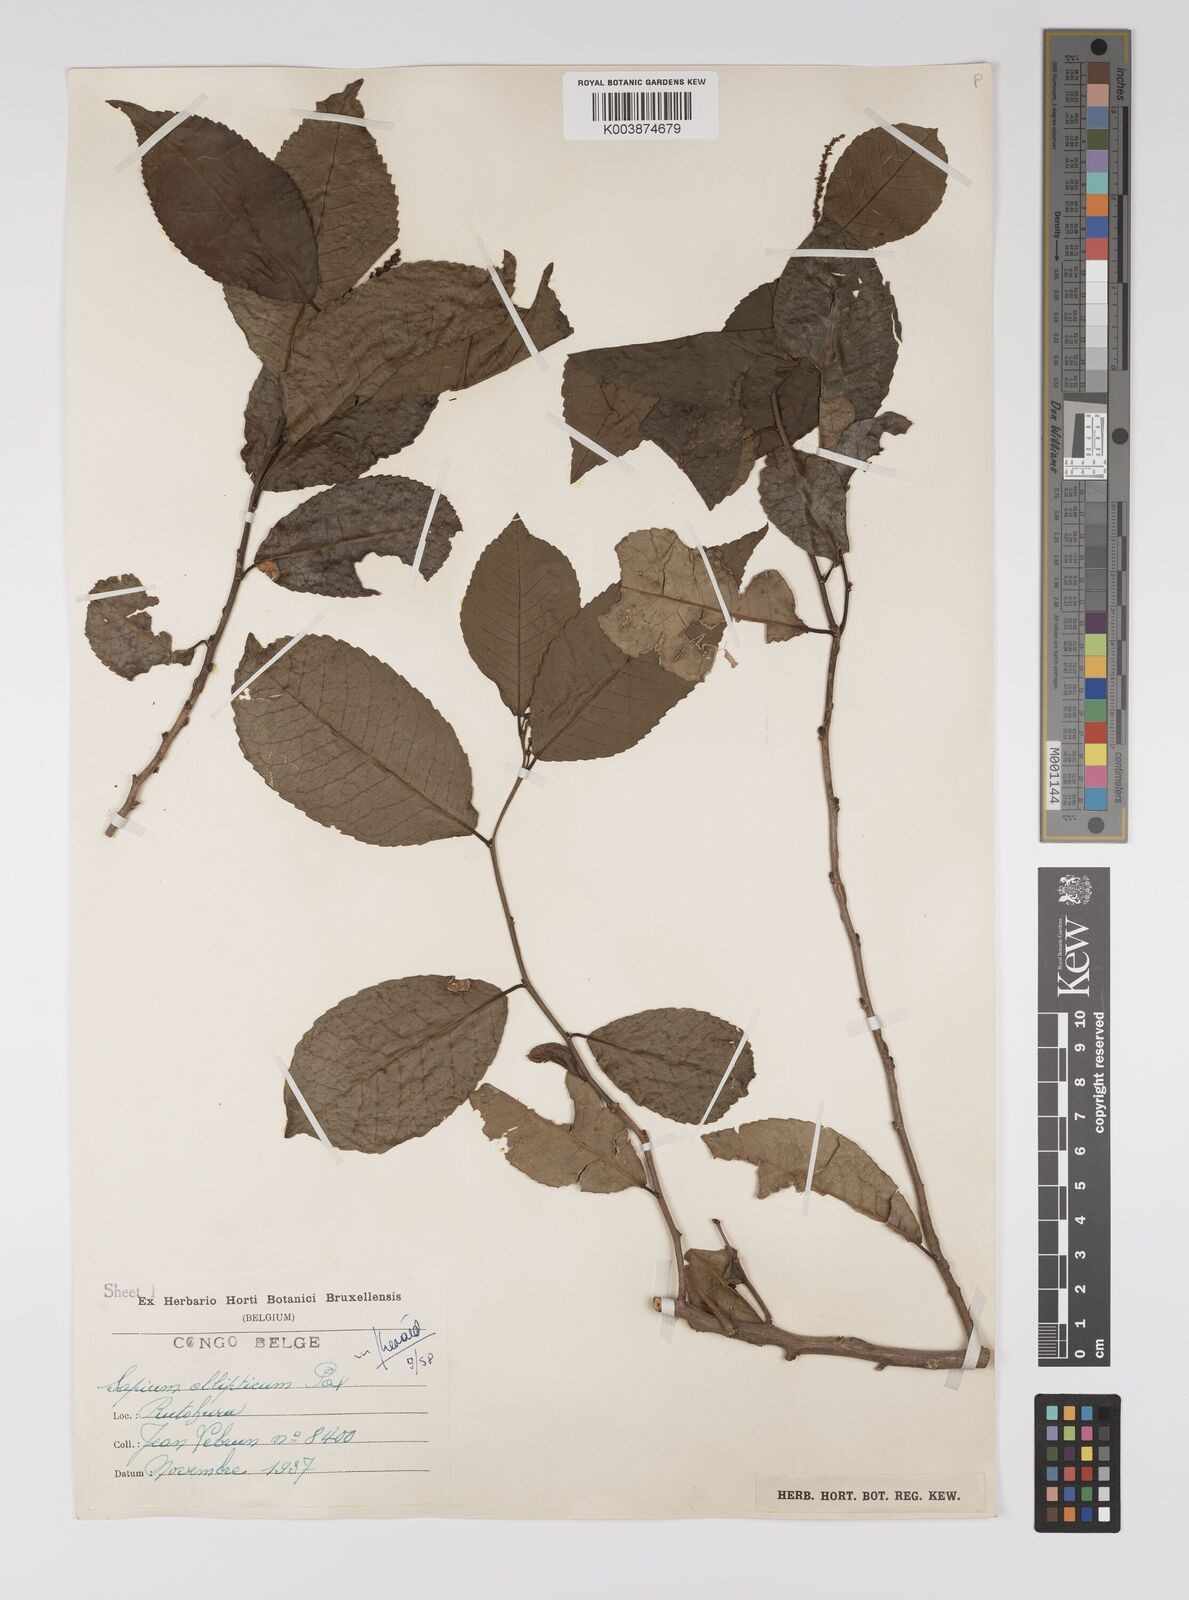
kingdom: Plantae
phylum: Tracheophyta
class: Magnoliopsida
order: Malpighiales
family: Euphorbiaceae
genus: Shirakiopsis
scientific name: Shirakiopsis elliptica
